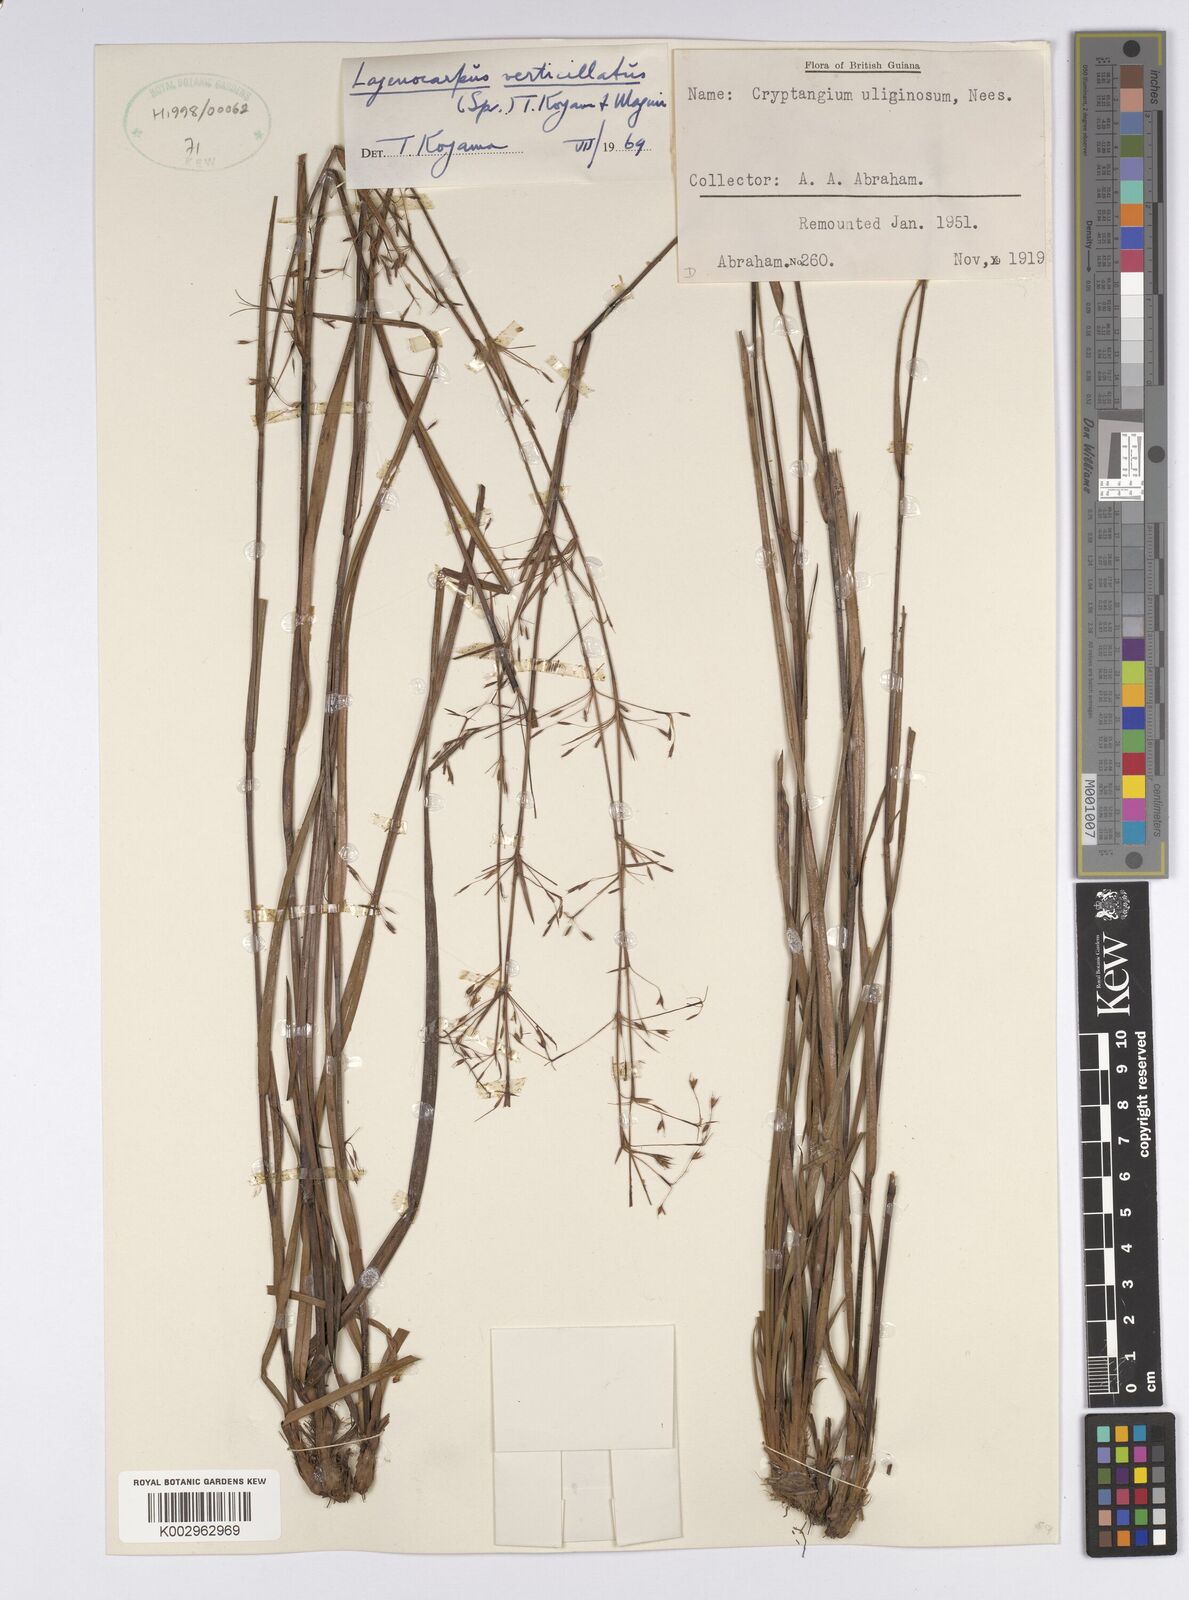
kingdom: Plantae
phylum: Tracheophyta
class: Liliopsida
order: Poales
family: Cyperaceae
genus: Cryptangium
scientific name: Cryptangium verticillatum
